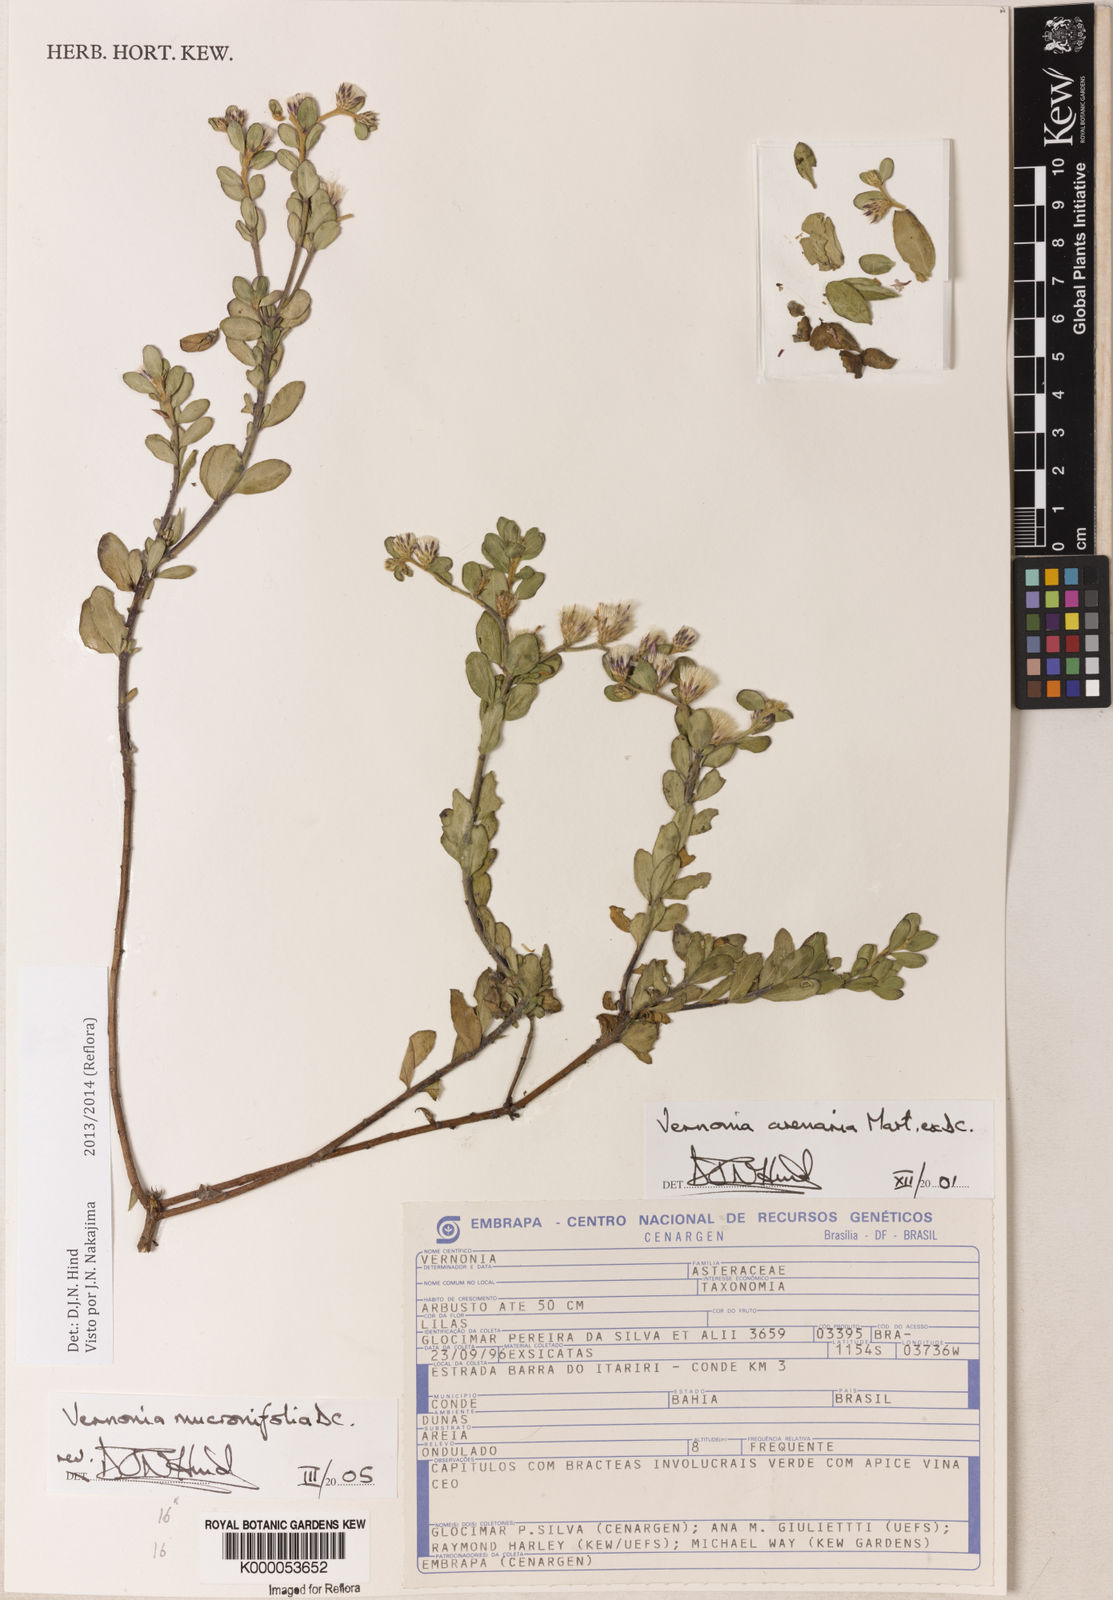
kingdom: Plantae
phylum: Tracheophyta
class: Magnoliopsida
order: Asterales
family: Asteraceae
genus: Lepidaploa
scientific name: Lepidaploa mucronifolia
